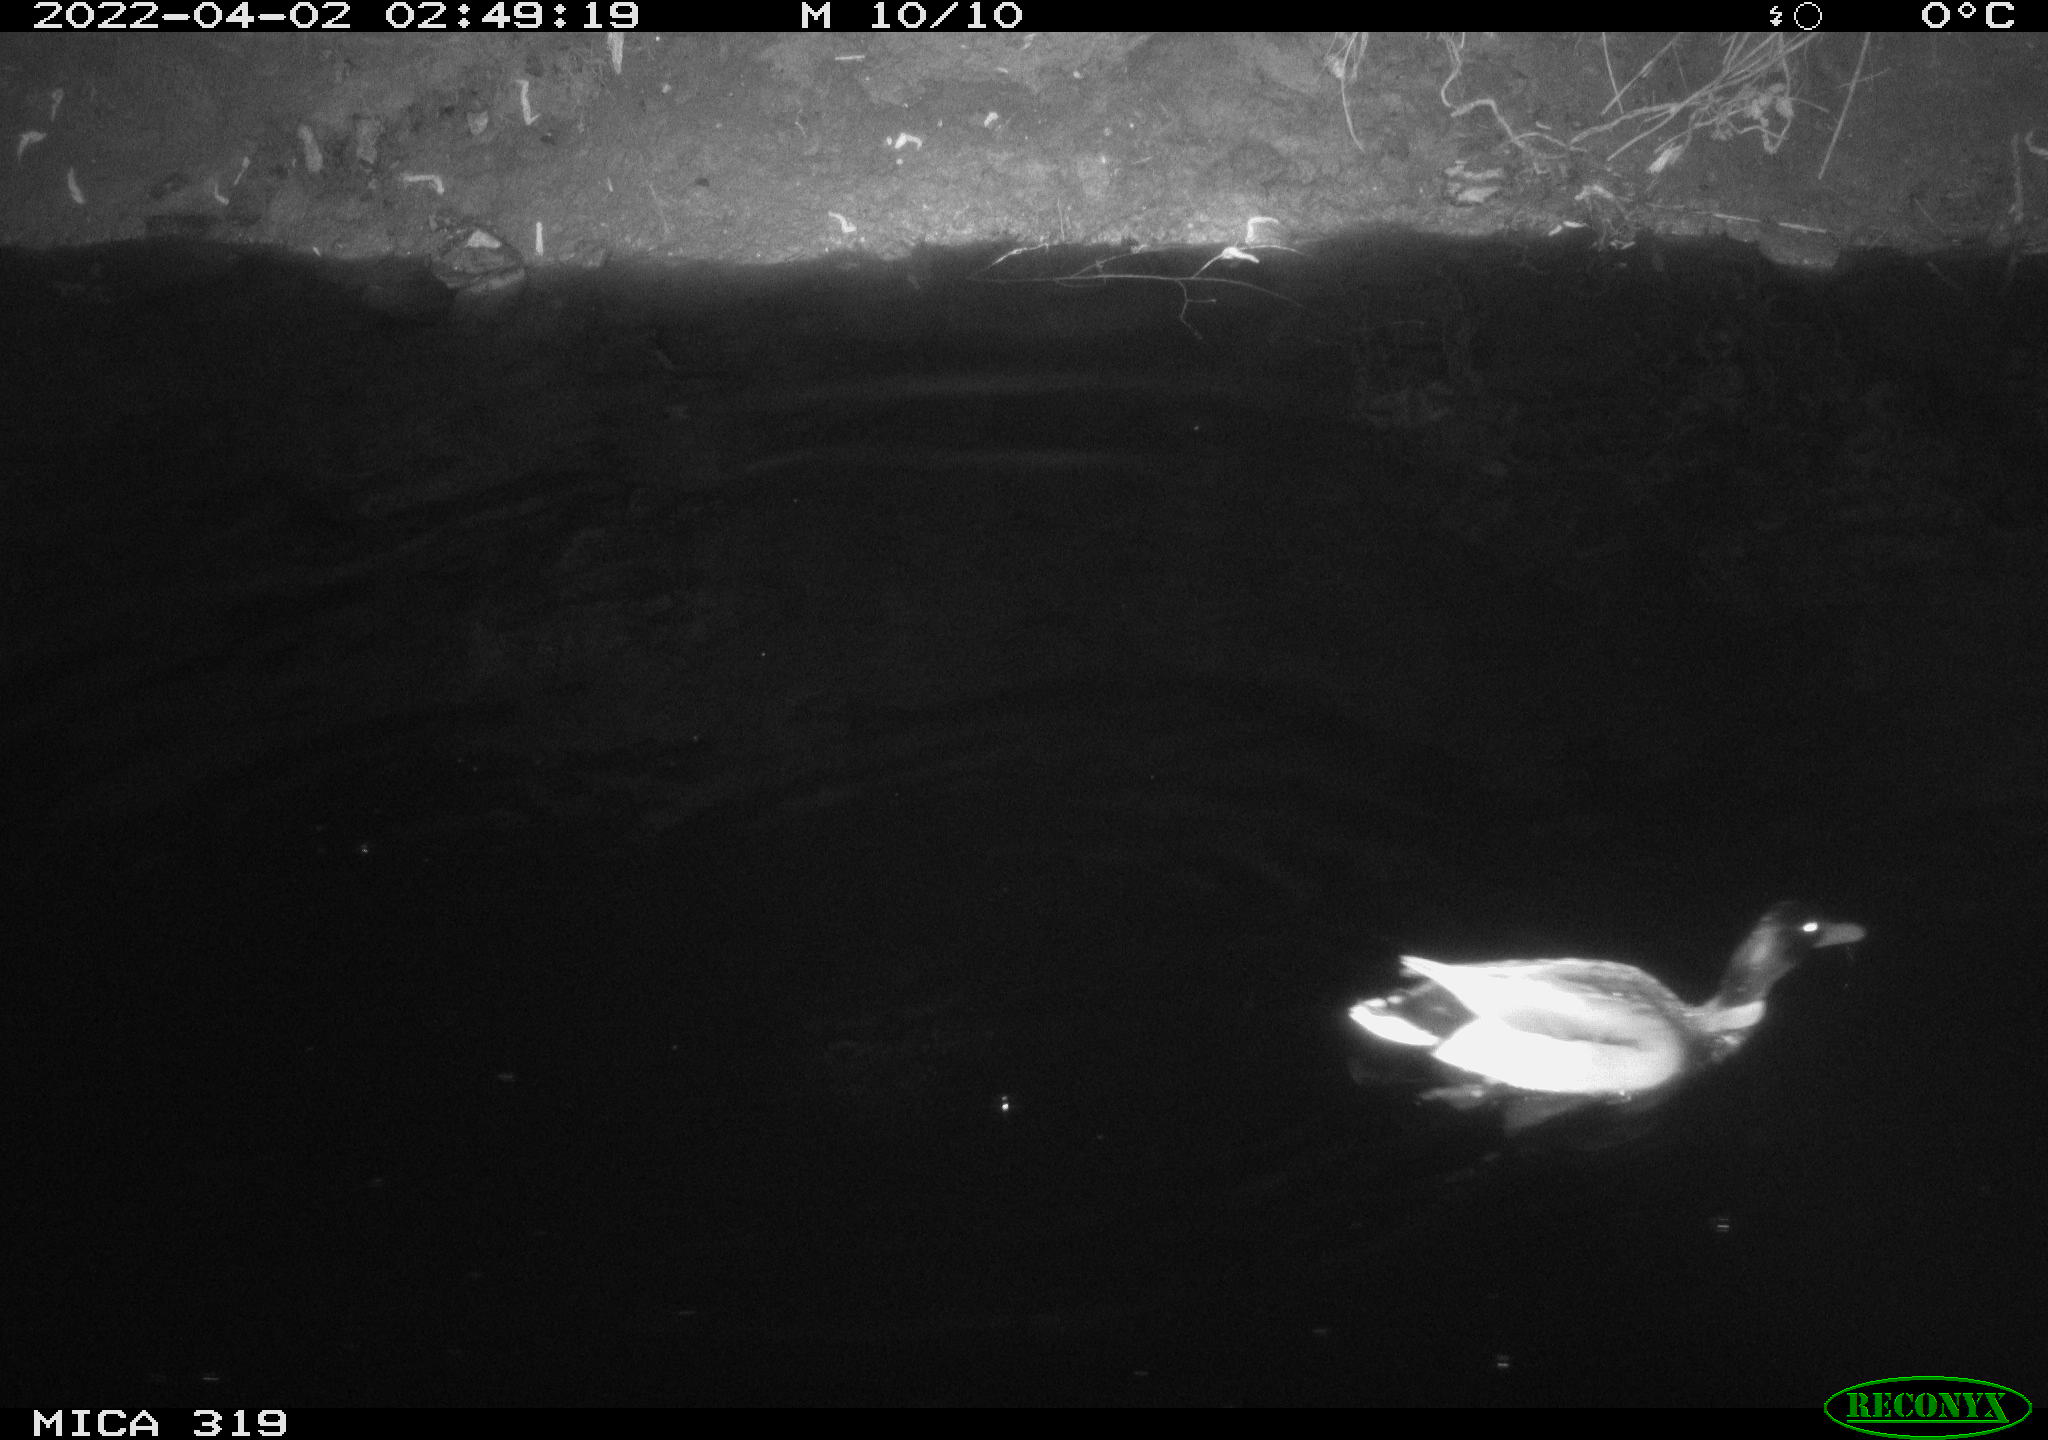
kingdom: Animalia
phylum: Chordata
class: Aves
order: Anseriformes
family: Anatidae
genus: Anas
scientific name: Anas platyrhynchos
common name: Mallard
